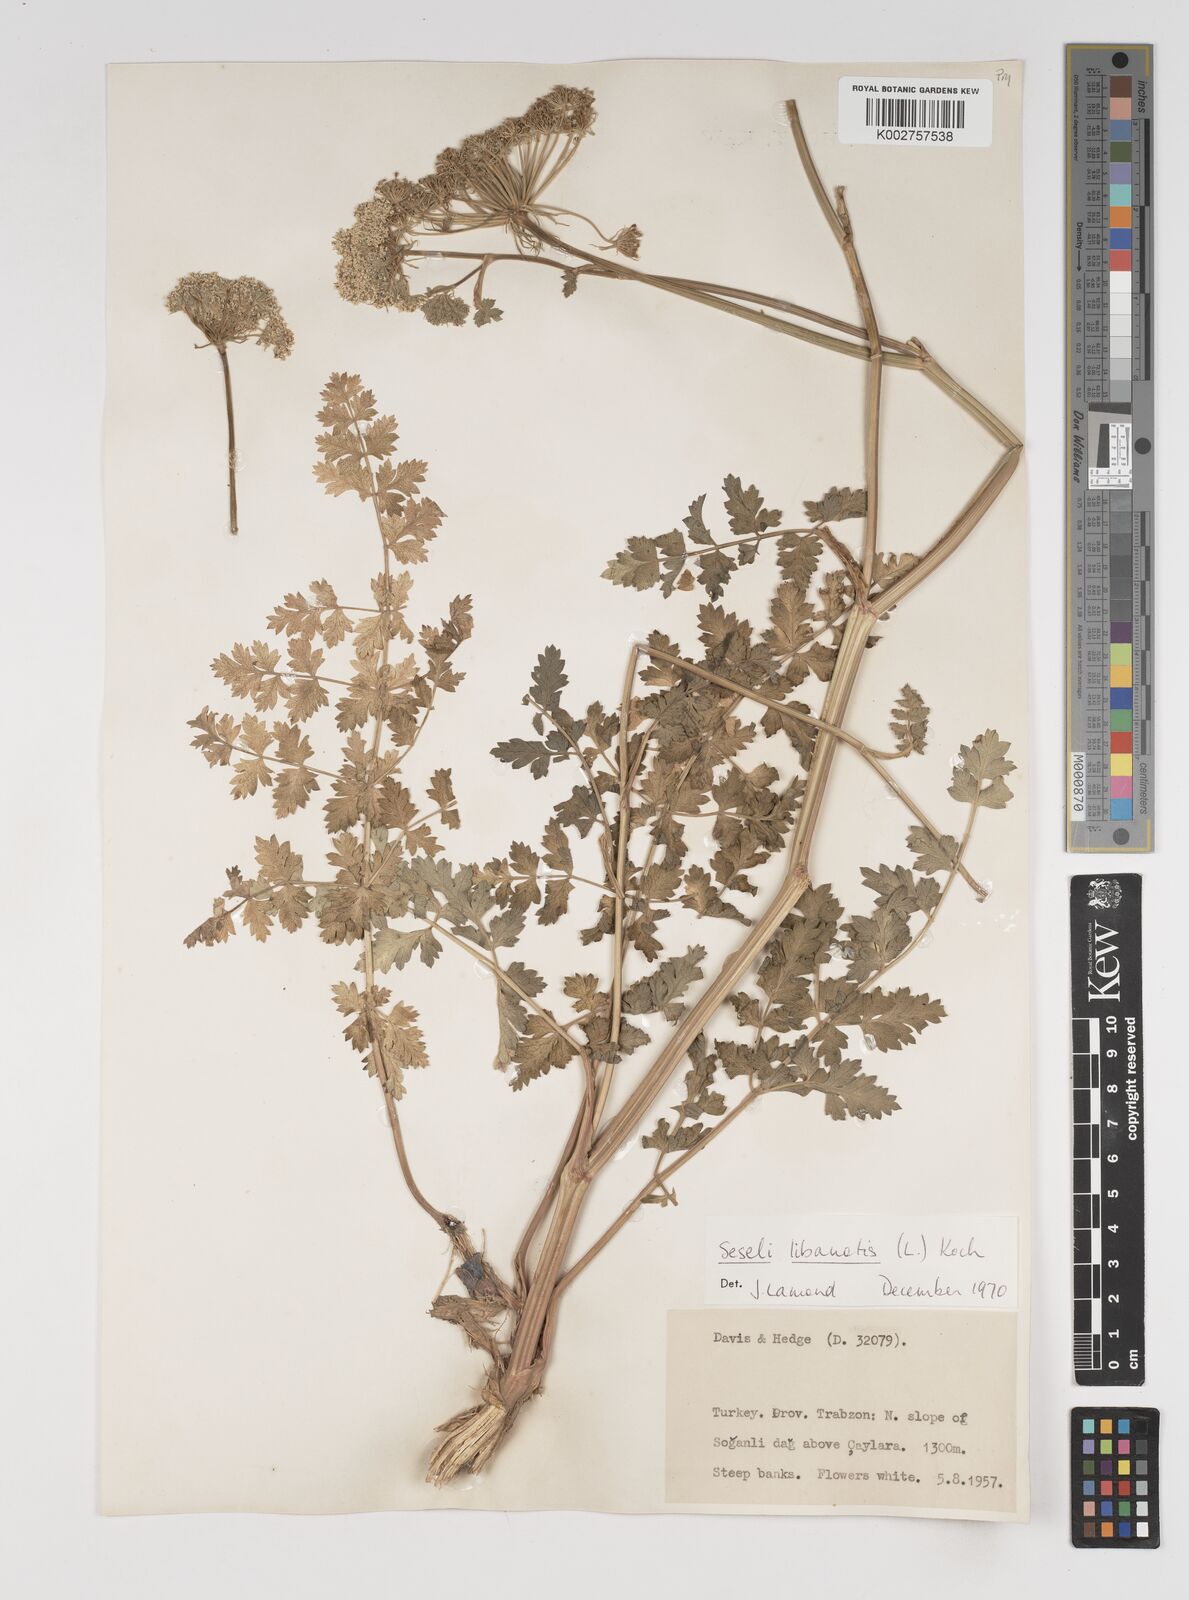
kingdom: Plantae
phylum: Tracheophyta
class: Magnoliopsida
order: Apiales
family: Apiaceae
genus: Seseli
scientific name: Seseli libanotis
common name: Mooncarrot
